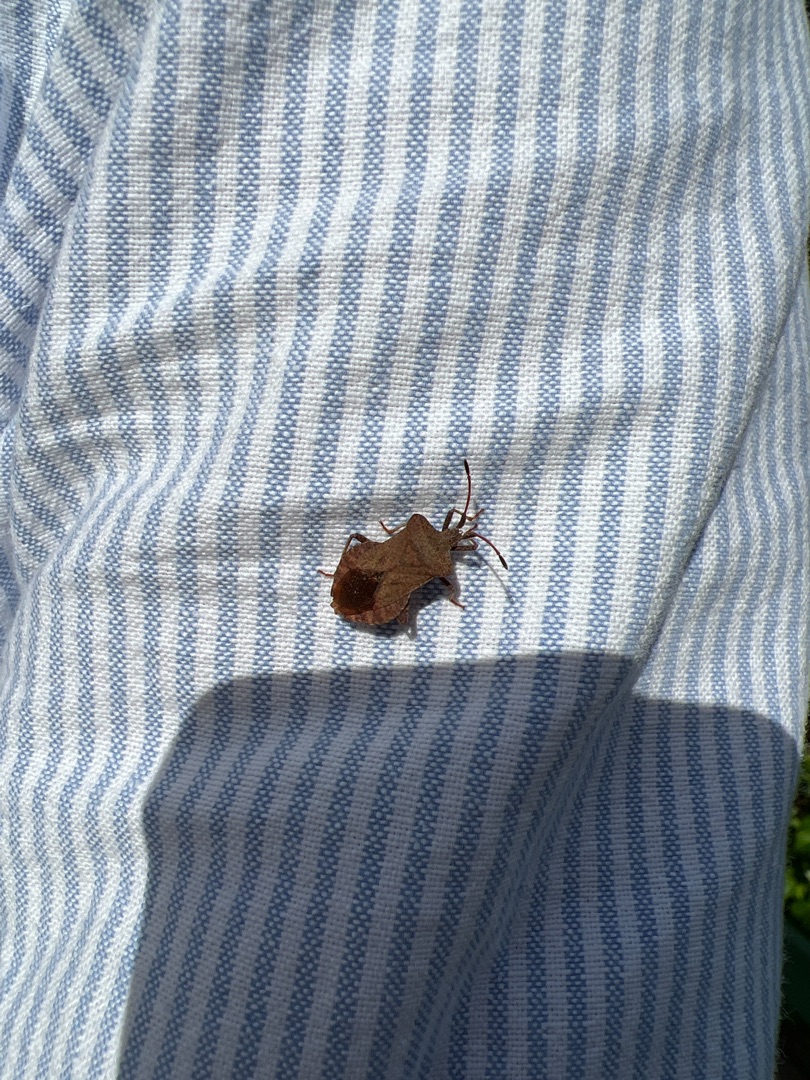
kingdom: Animalia
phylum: Arthropoda
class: Insecta
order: Hemiptera
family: Coreidae
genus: Coreus
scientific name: Coreus marginatus
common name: Skræppetæge
